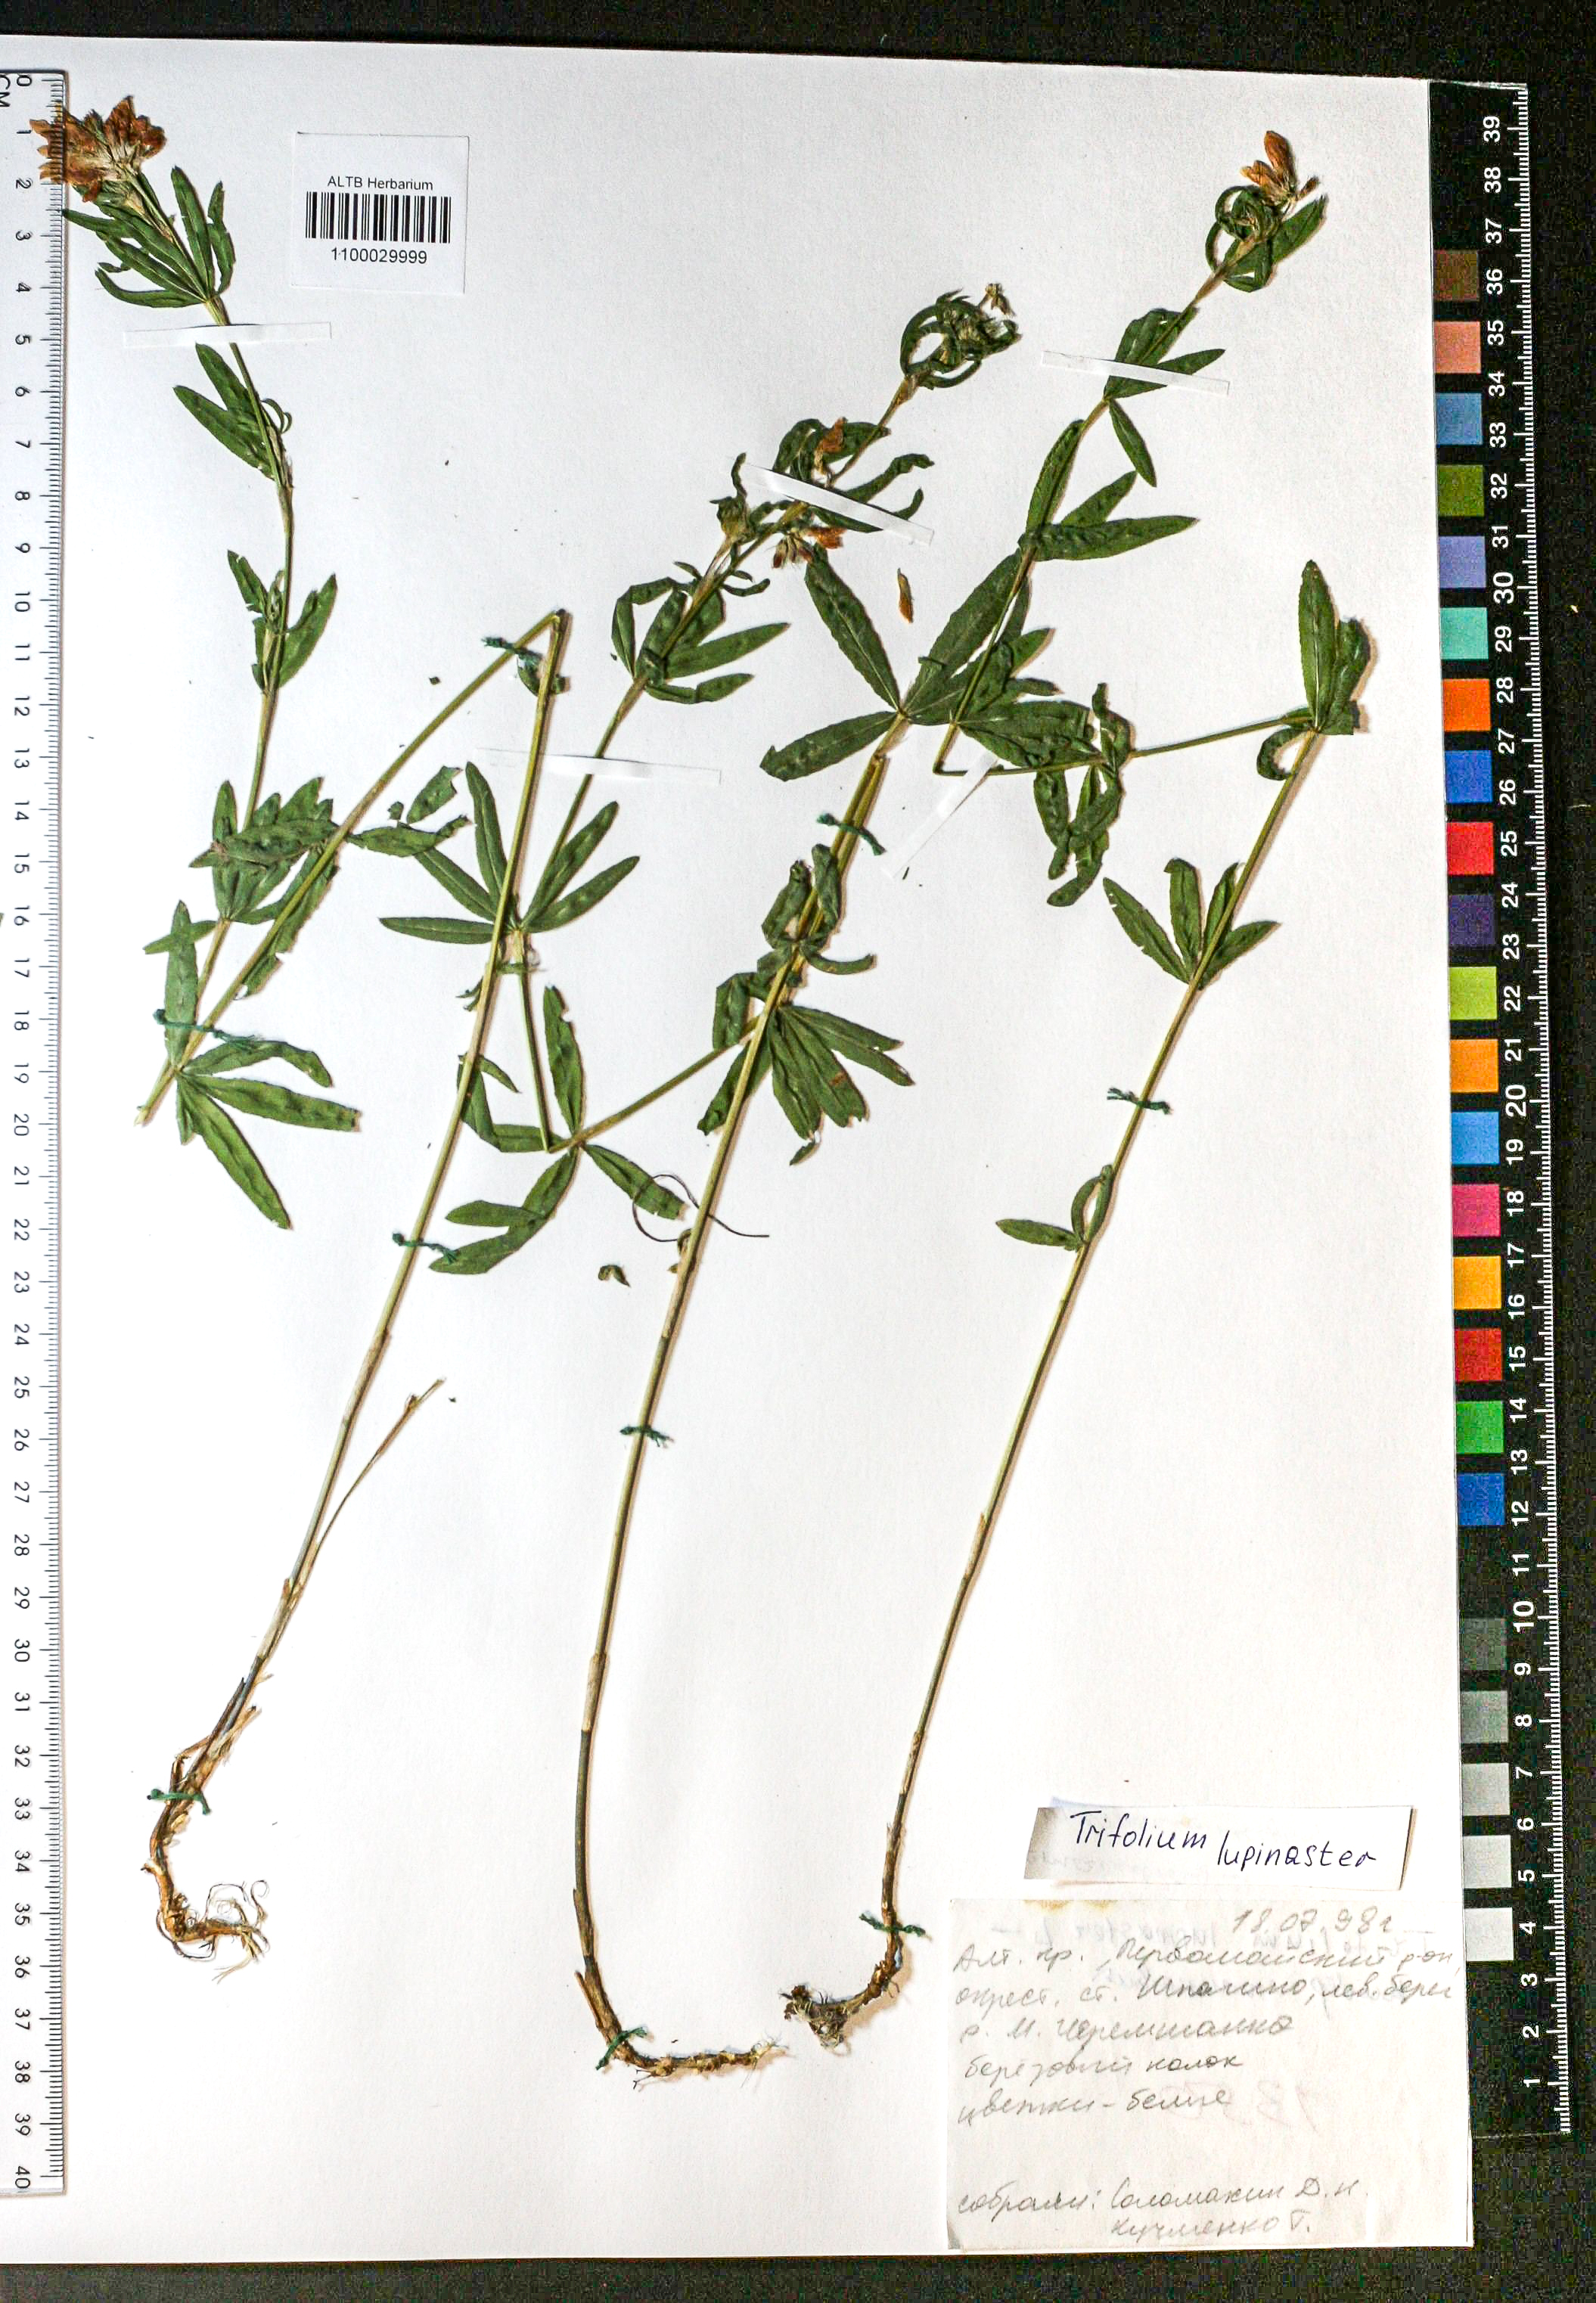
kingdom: Plantae
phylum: Tracheophyta
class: Magnoliopsida
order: Fabales
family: Fabaceae
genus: Trifolium
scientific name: Trifolium lupinaster
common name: Lupine clover
